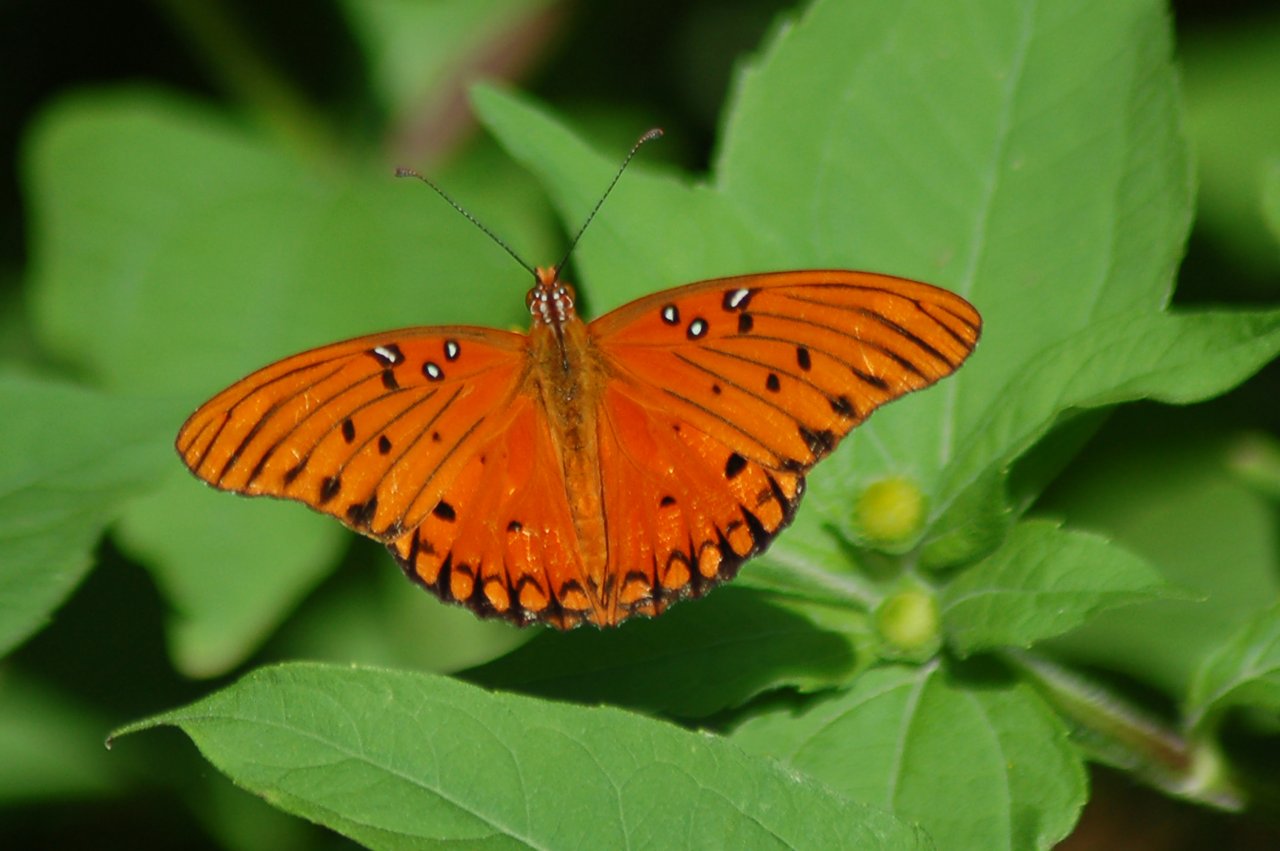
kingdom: Animalia
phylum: Arthropoda
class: Insecta
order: Lepidoptera
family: Nymphalidae
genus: Dione
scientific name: Dione vanillae
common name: Gulf Fritillary
